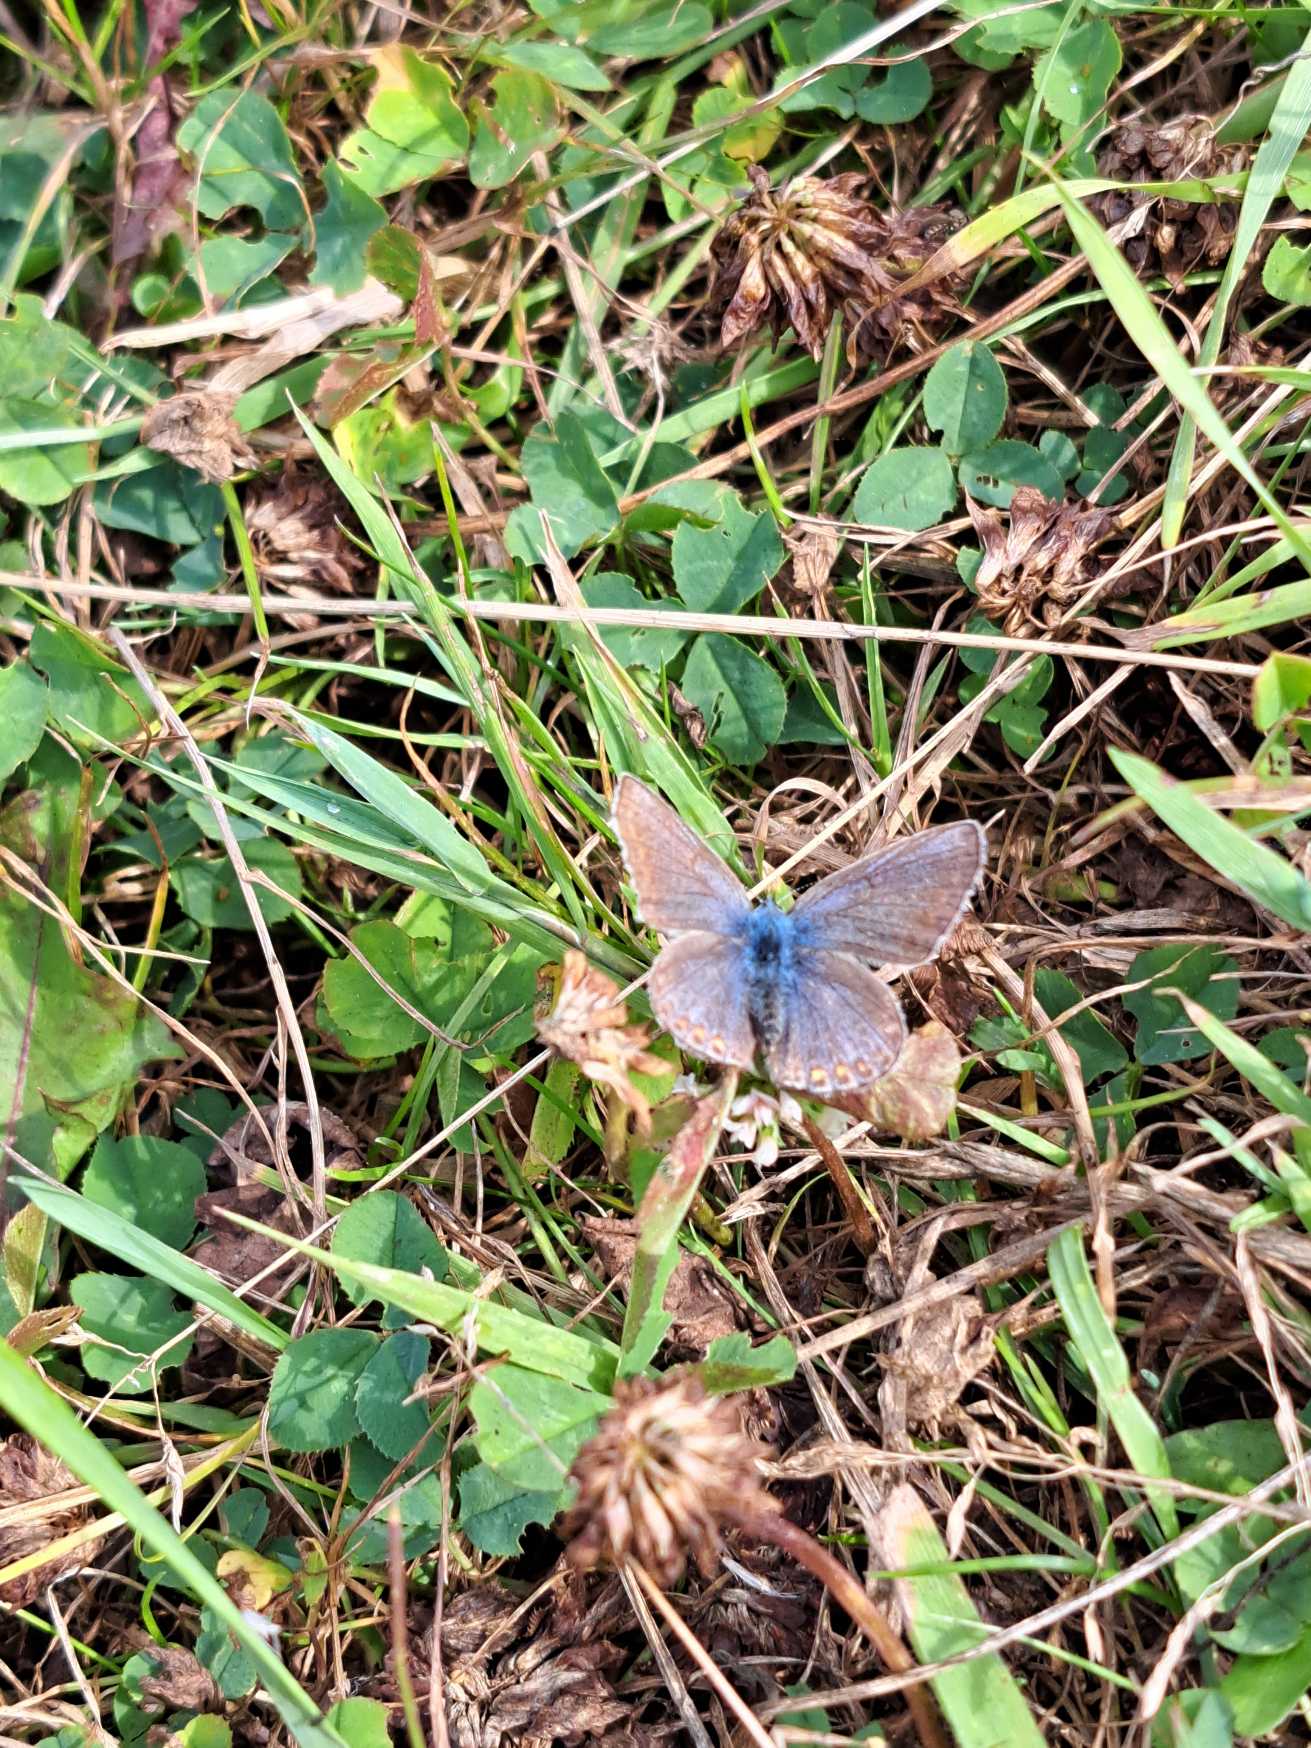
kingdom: Animalia
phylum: Arthropoda
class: Insecta
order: Lepidoptera
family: Lycaenidae
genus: Polyommatus
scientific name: Polyommatus icarus
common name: Almindelig blåfugl
